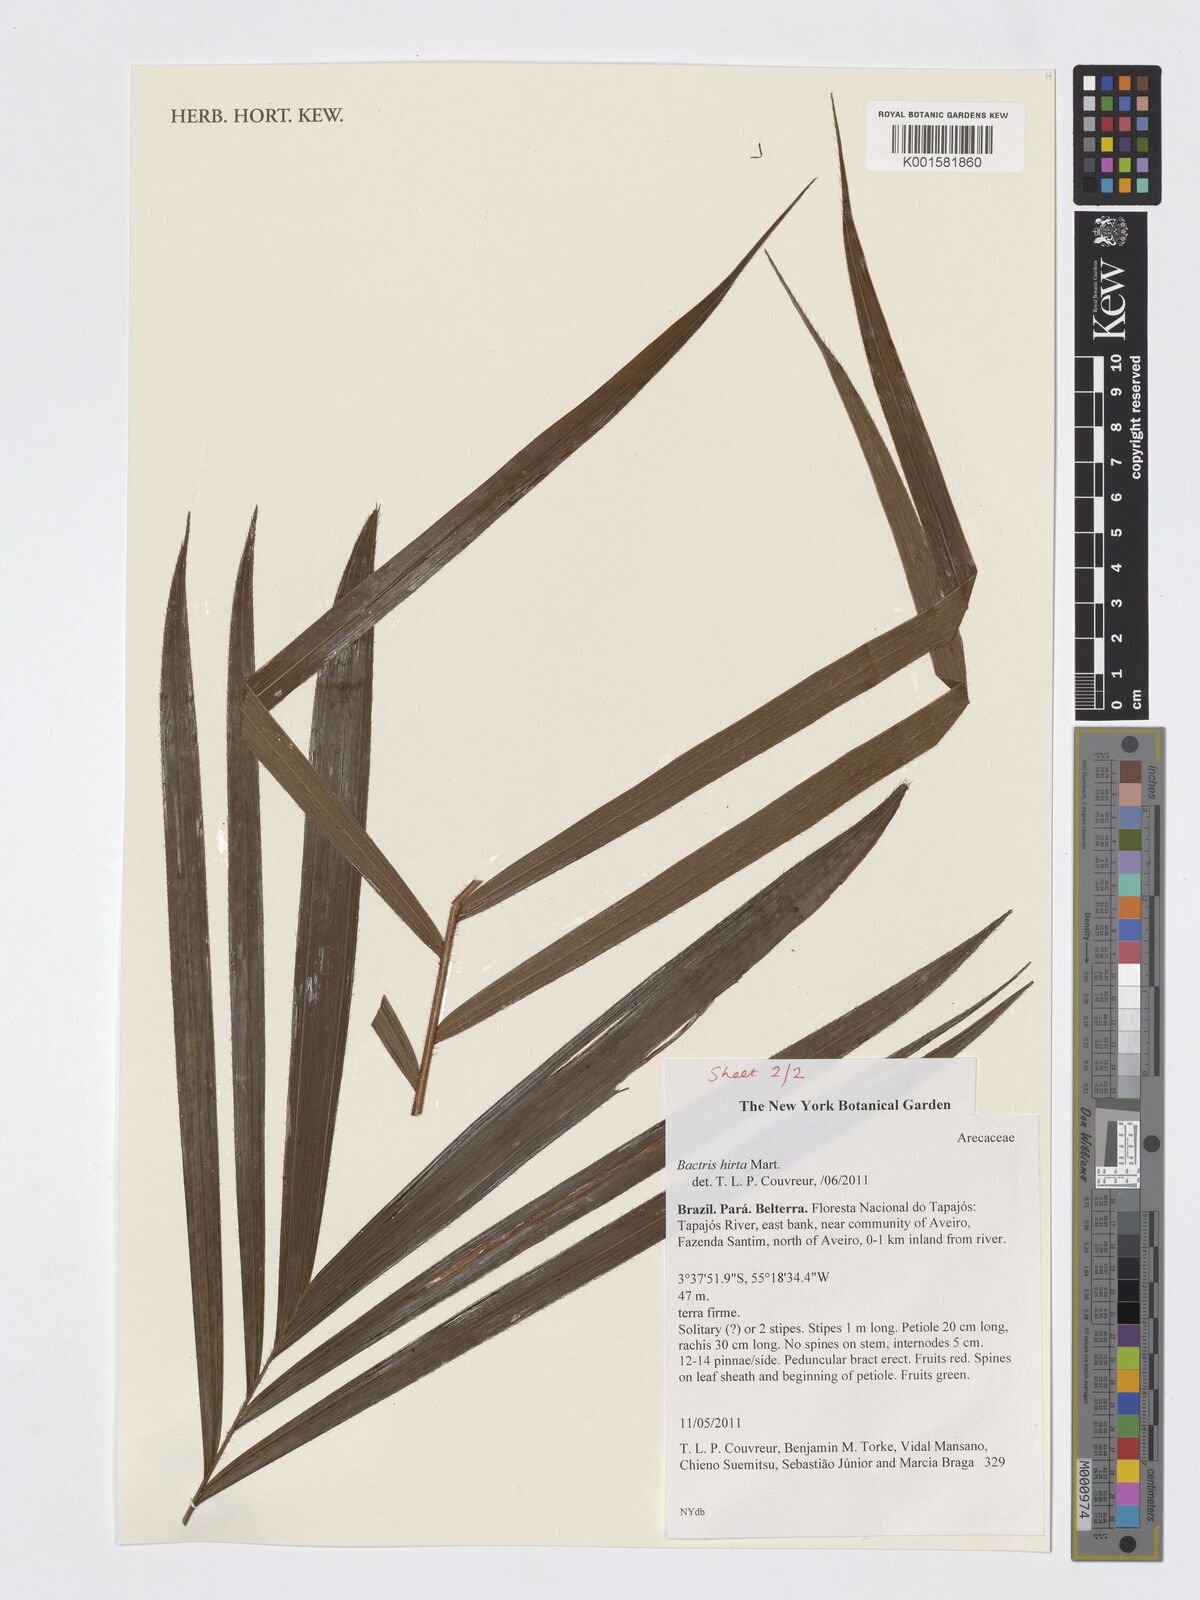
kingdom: Plantae
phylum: Tracheophyta
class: Liliopsida
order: Arecales
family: Arecaceae
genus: Bactris
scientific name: Bactris hirta
